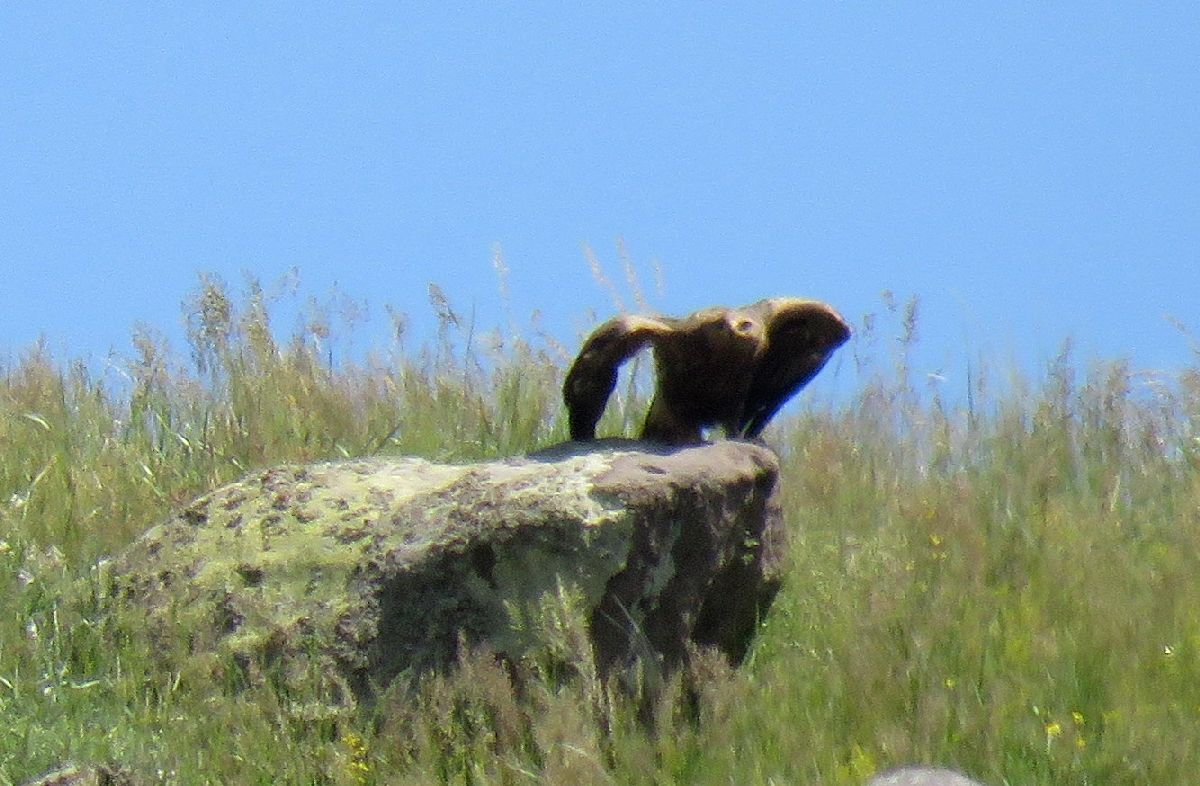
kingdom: Animalia
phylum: Chordata
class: Aves
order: Accipitriformes
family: Accipitridae
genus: Aquila
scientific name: Aquila pomarina
